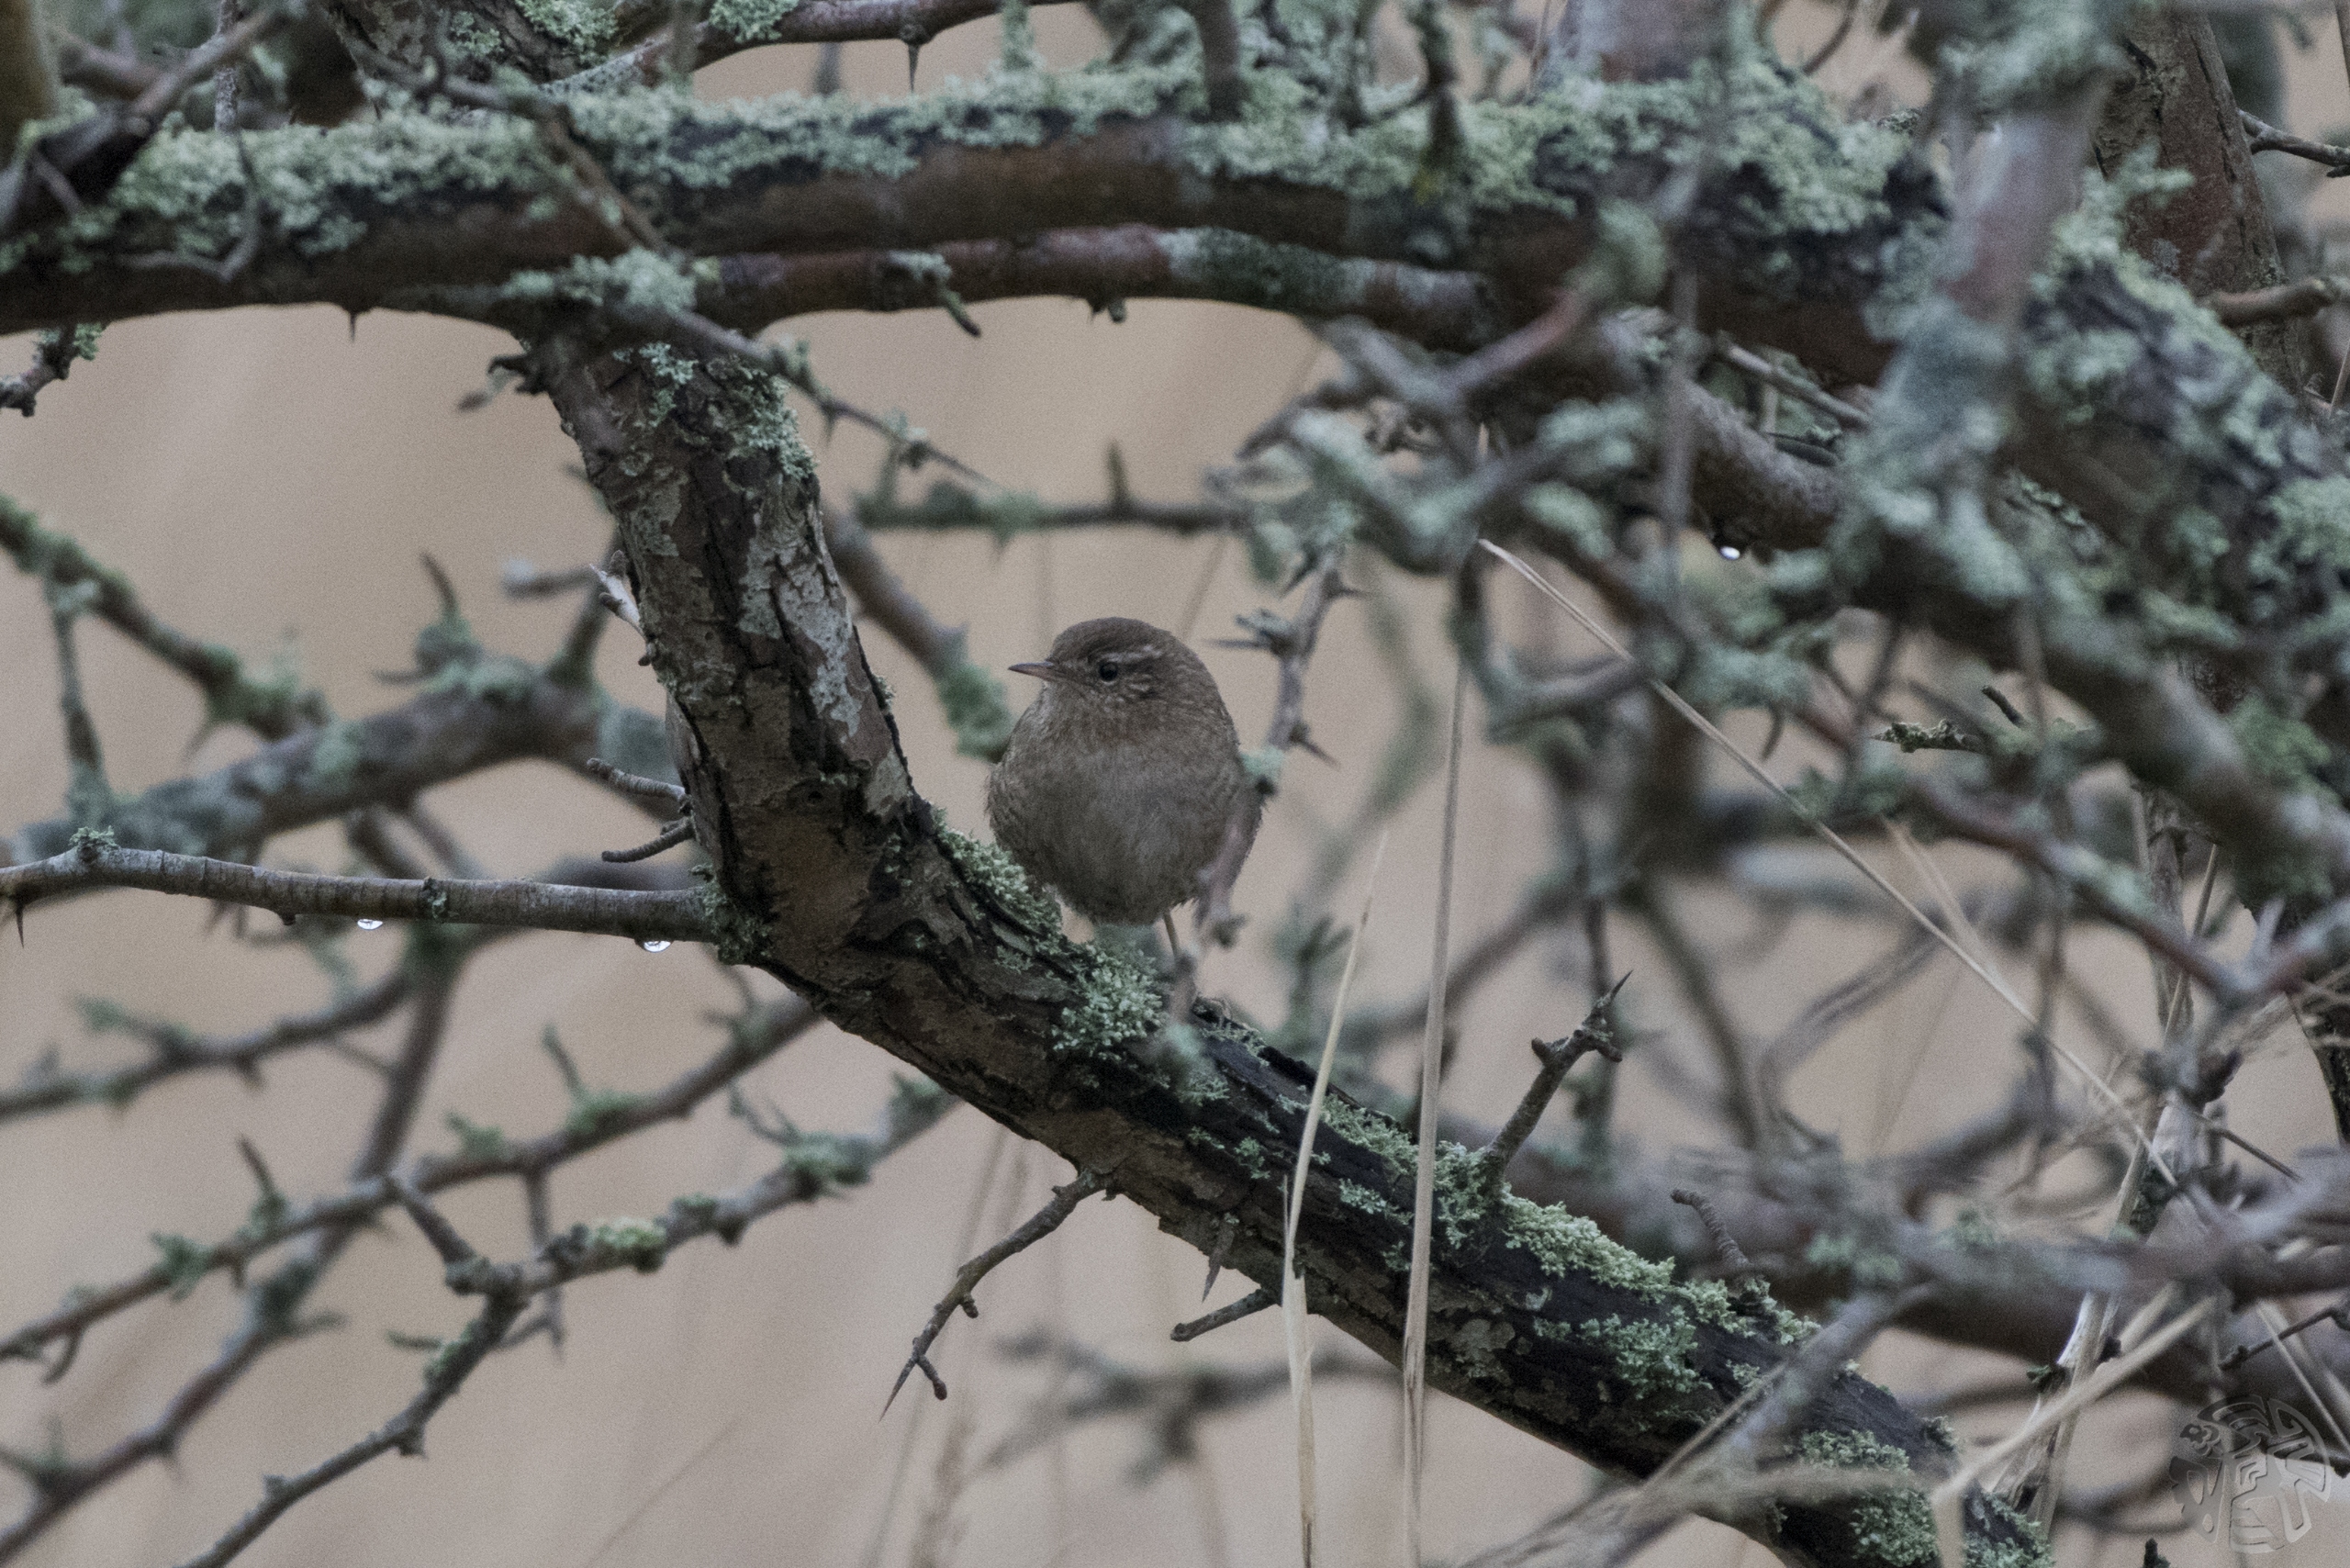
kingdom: Animalia
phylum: Chordata
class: Aves
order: Passeriformes
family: Troglodytidae
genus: Troglodytes
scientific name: Troglodytes troglodytes
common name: Gærdesmutte
